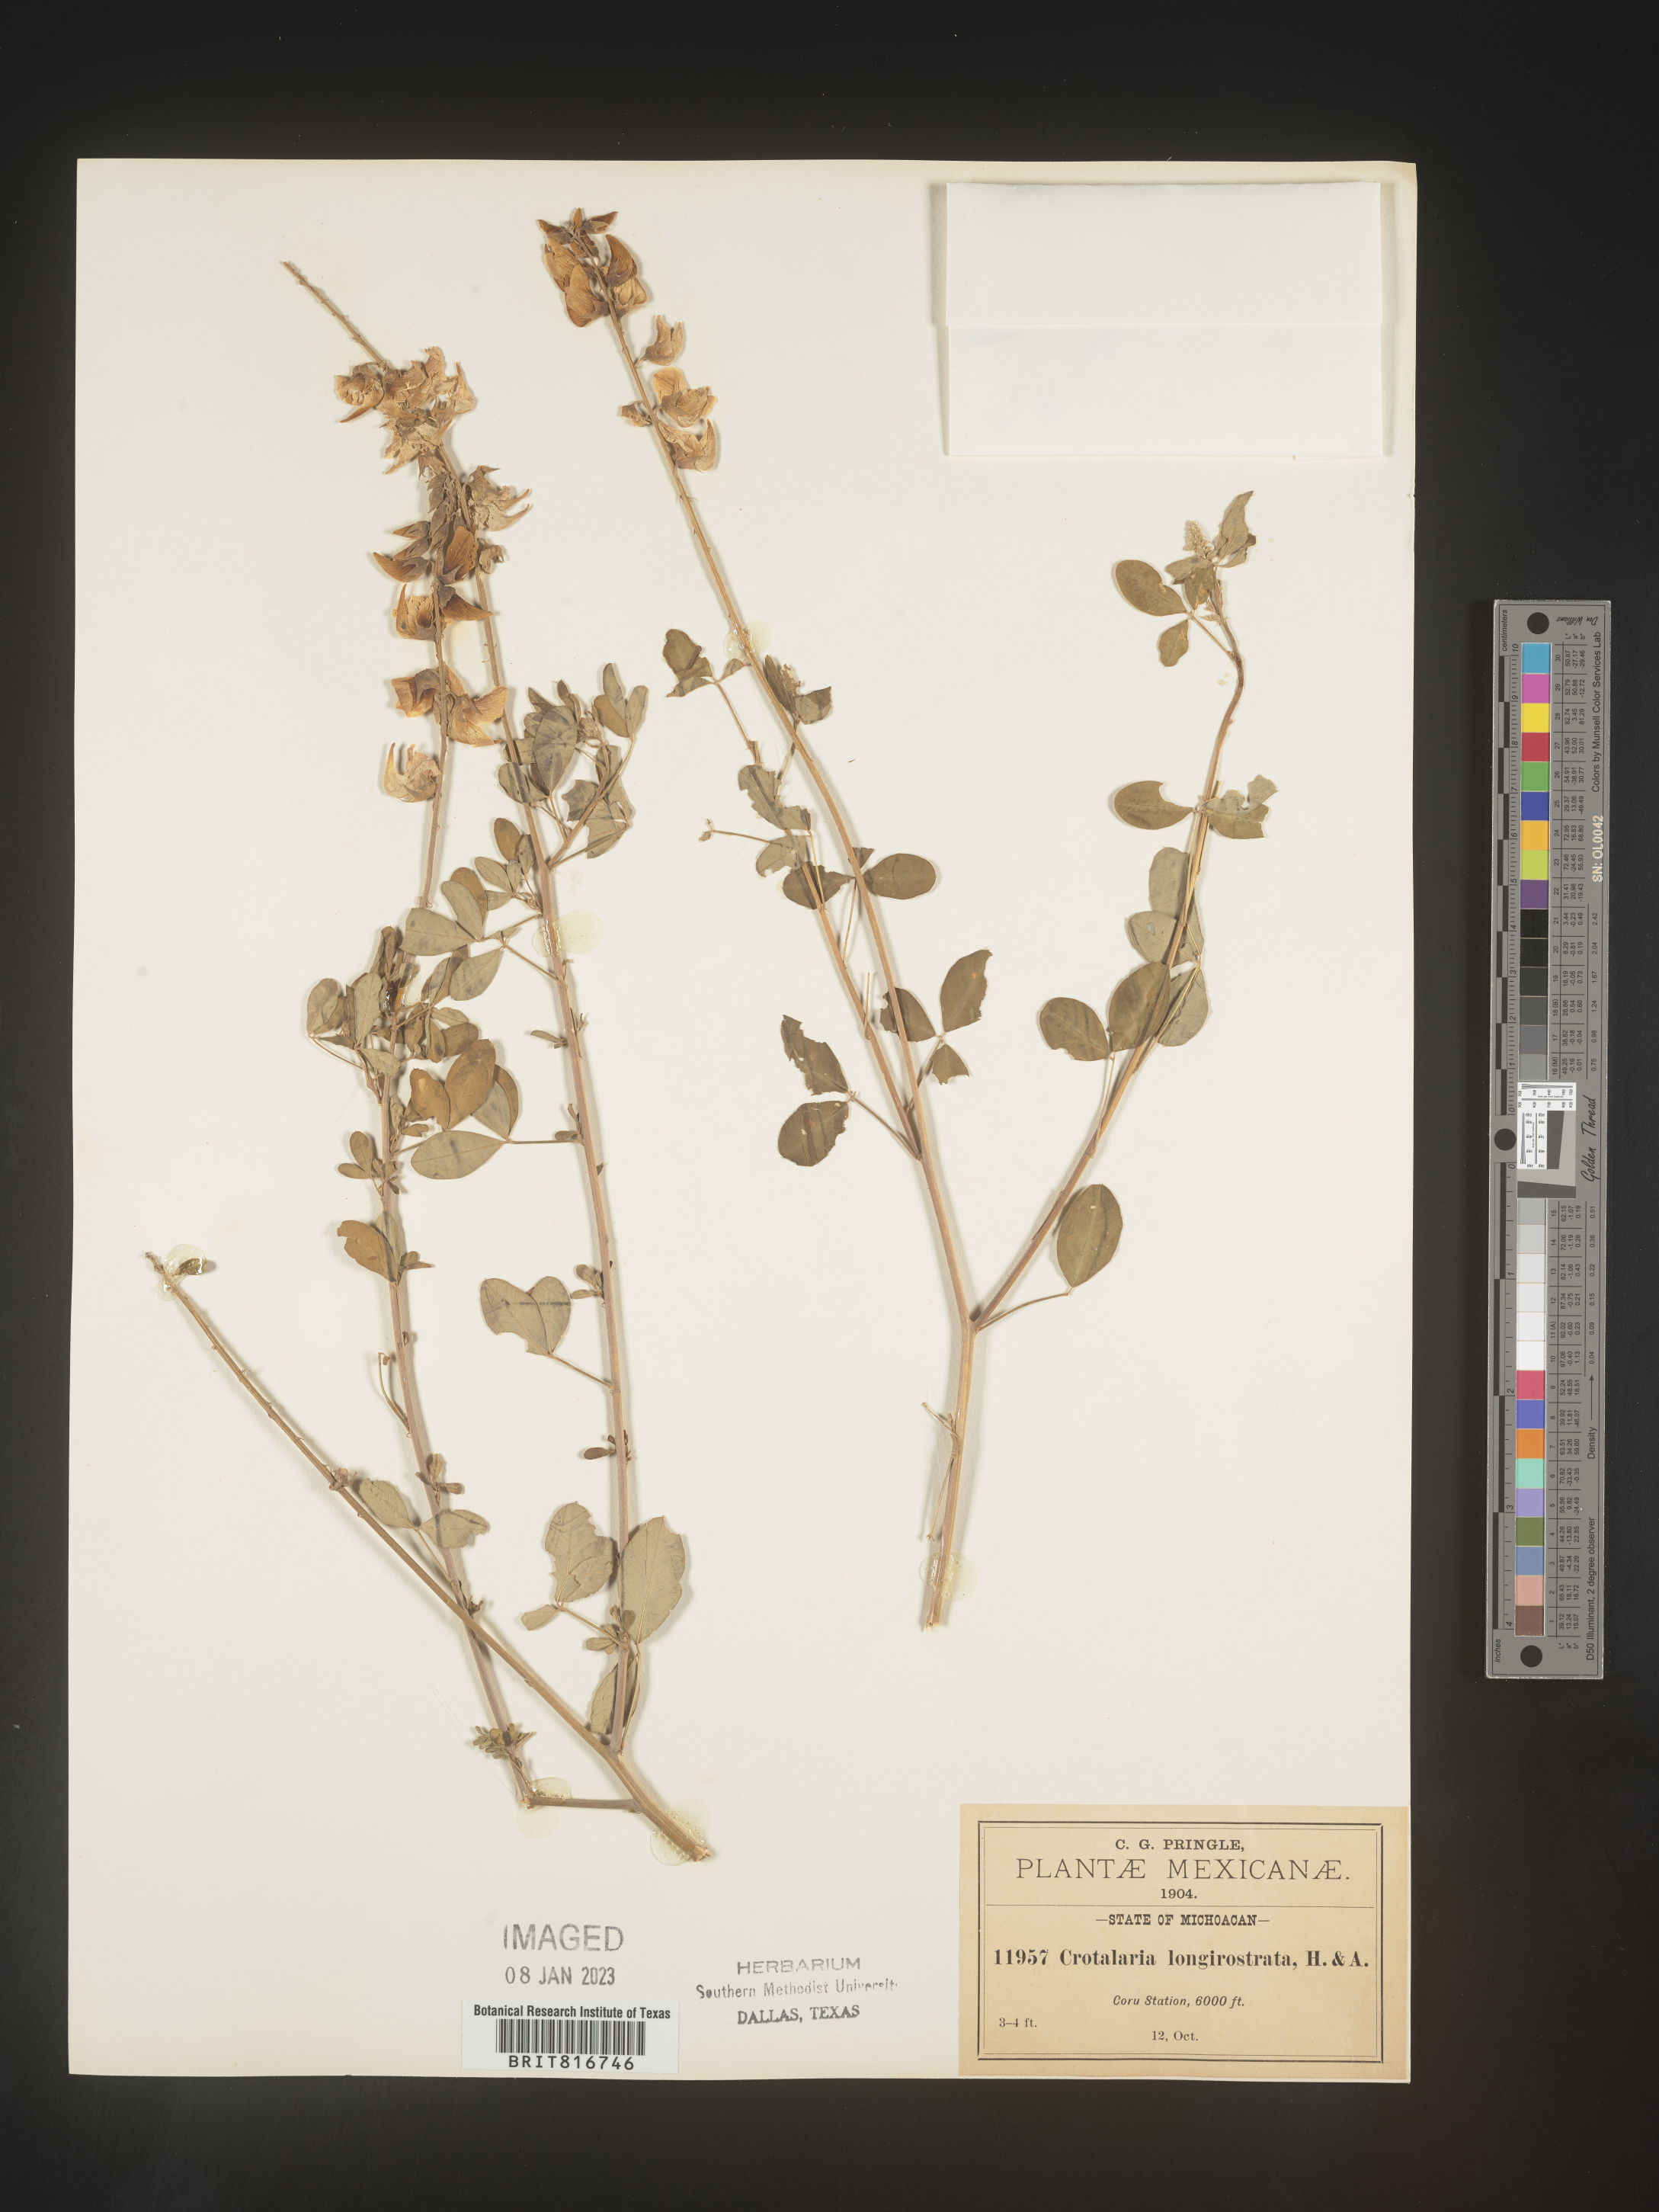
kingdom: Plantae
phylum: Tracheophyta
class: Magnoliopsida
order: Fabales
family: Fabaceae
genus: Crotalaria
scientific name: Crotalaria
